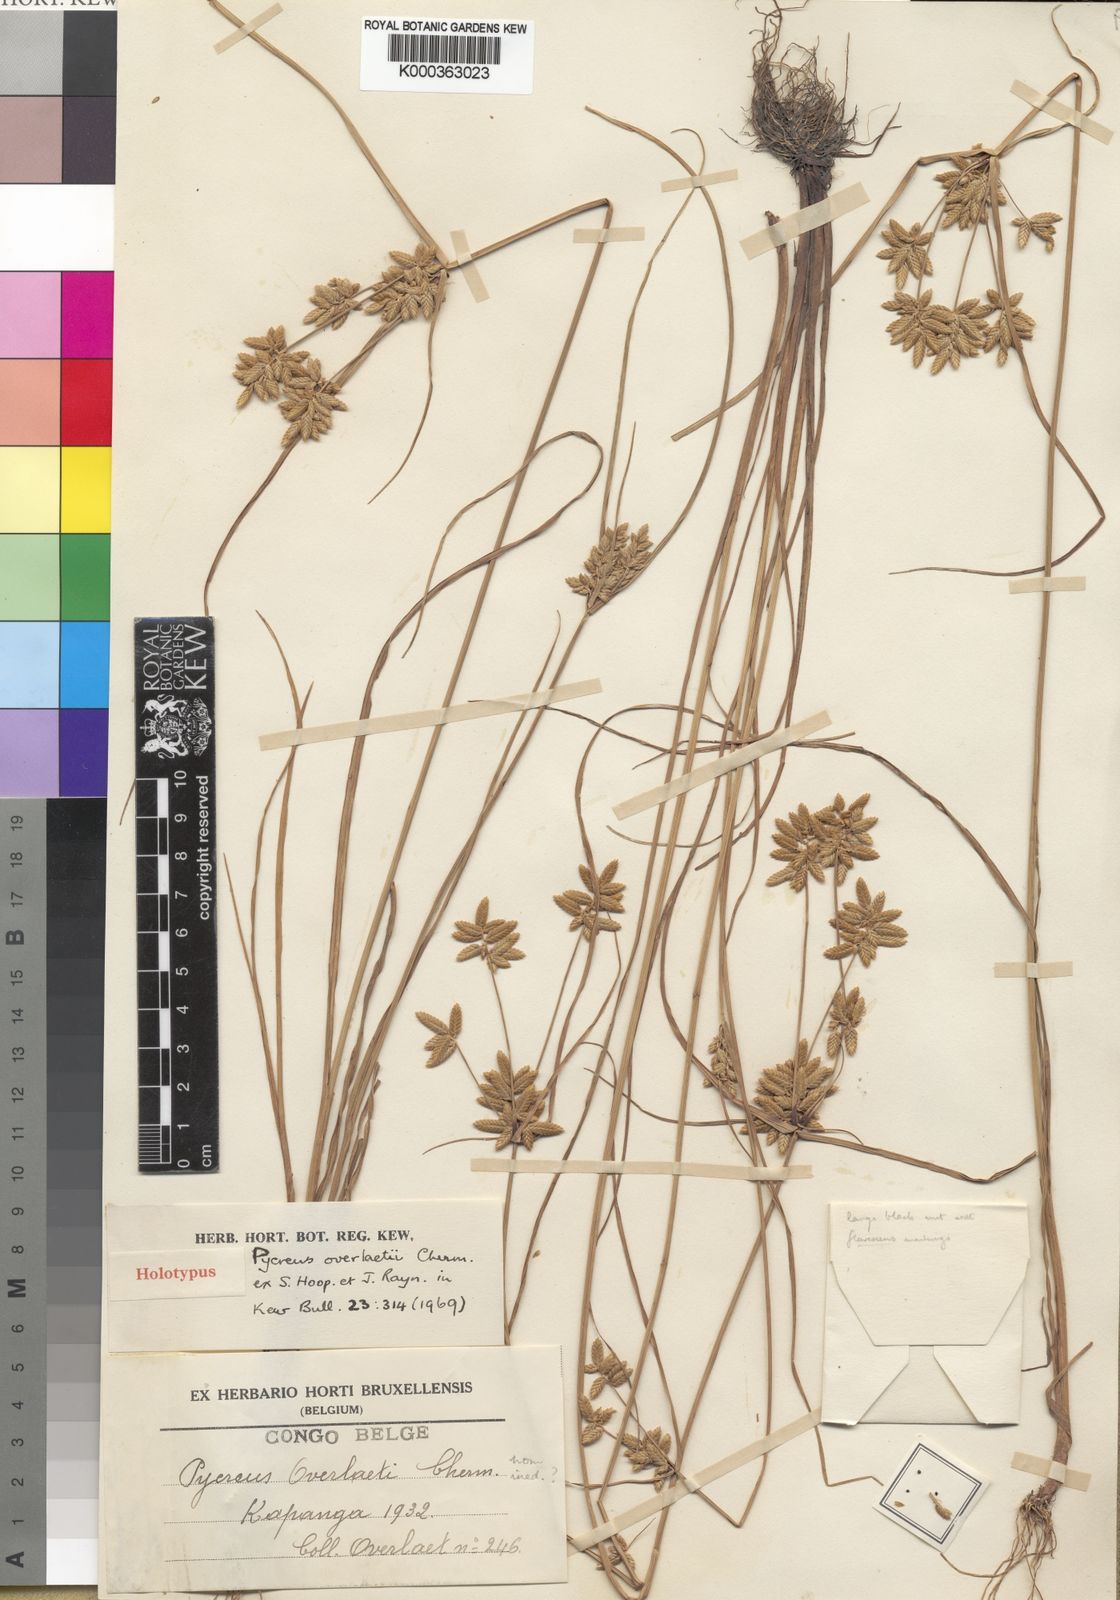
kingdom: Plantae
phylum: Tracheophyta
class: Liliopsida
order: Poales
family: Cyperaceae
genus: Cyperus
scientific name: Cyperus unioloides
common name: Uniola flatsedge
